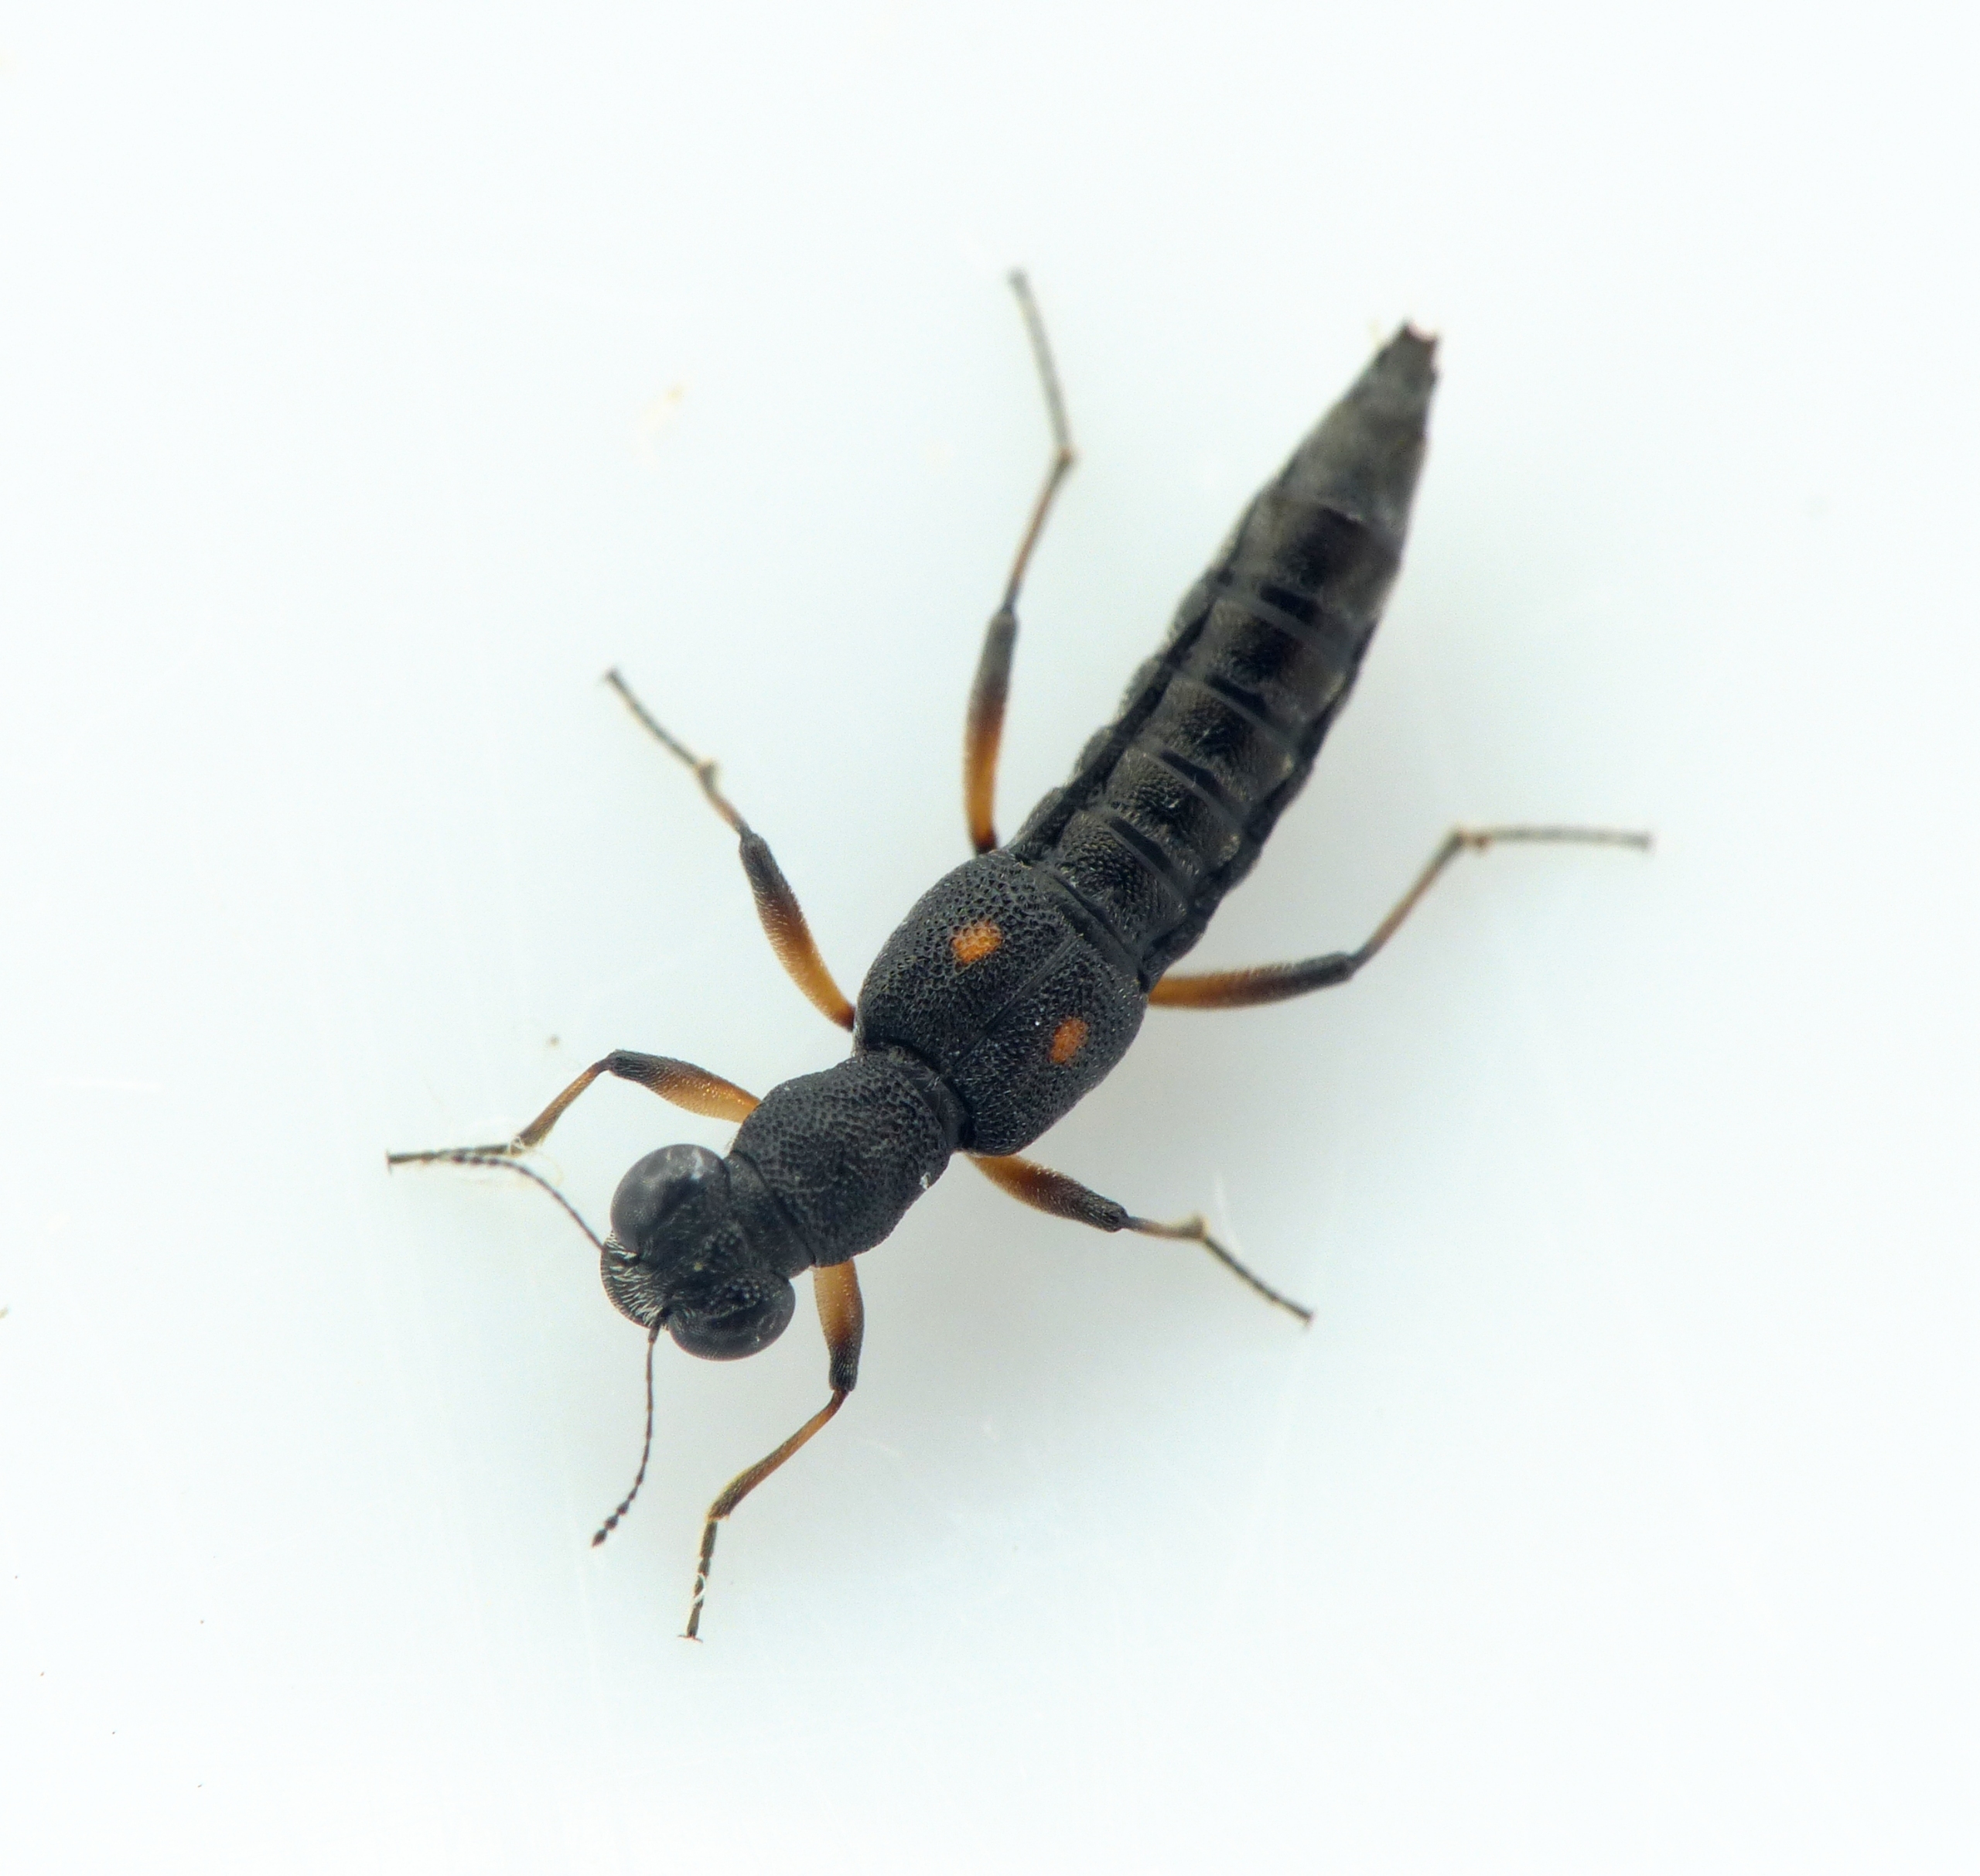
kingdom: Animalia
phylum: Arthropoda
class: Insecta
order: Coleoptera
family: Staphylinidae
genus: Stenus
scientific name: Stenus bimaculatus
